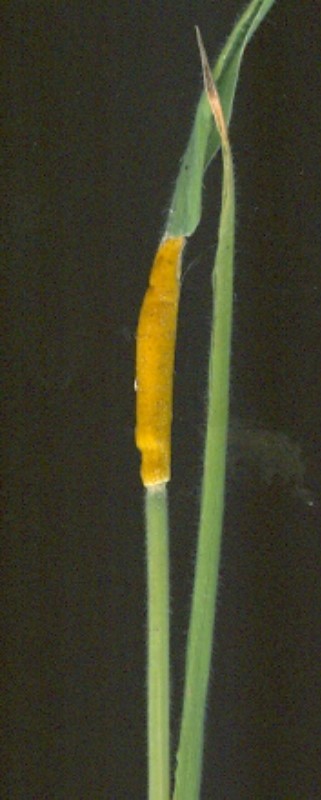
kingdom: Fungi
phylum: Ascomycota
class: Sordariomycetes
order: Hypocreales
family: Clavicipitaceae
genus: Epichloe
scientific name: Epichloe clarkii
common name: fløjlsgræs-kernerør
